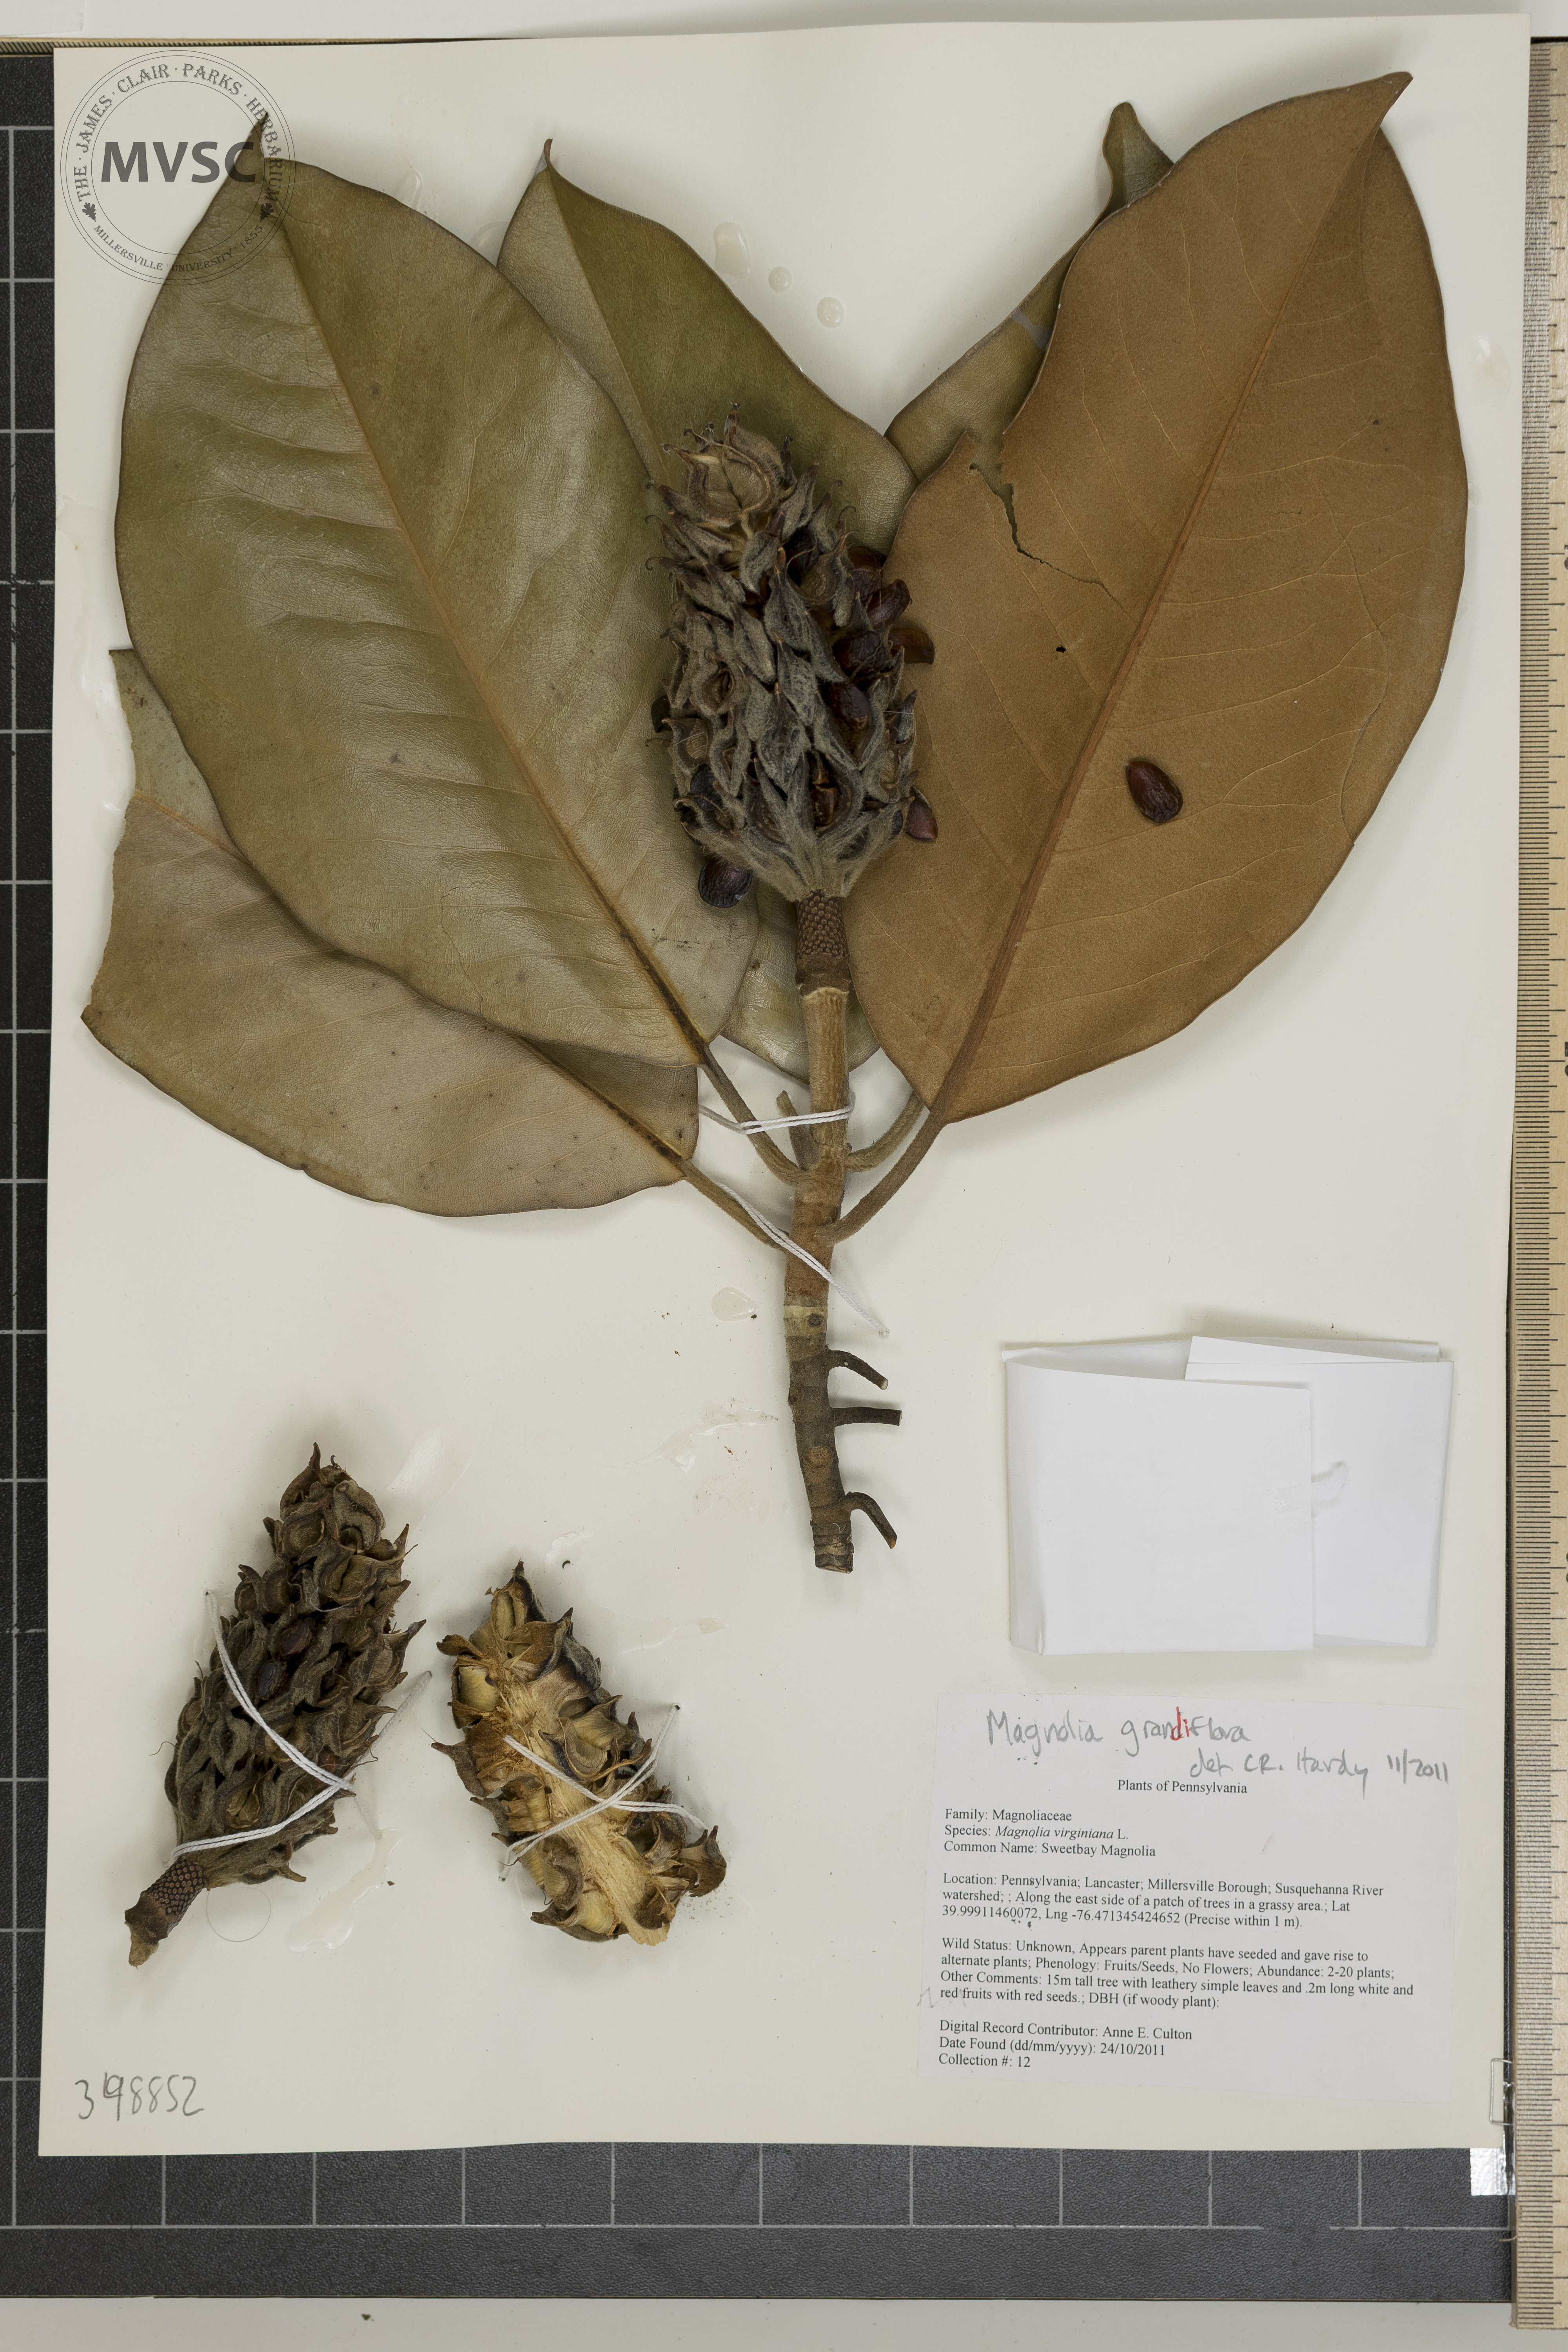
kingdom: Plantae
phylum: Tracheophyta
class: Magnoliopsida
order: Magnoliales
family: Magnoliaceae
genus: Magnolia
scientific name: Magnolia grandiflora
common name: Southern magnolia
